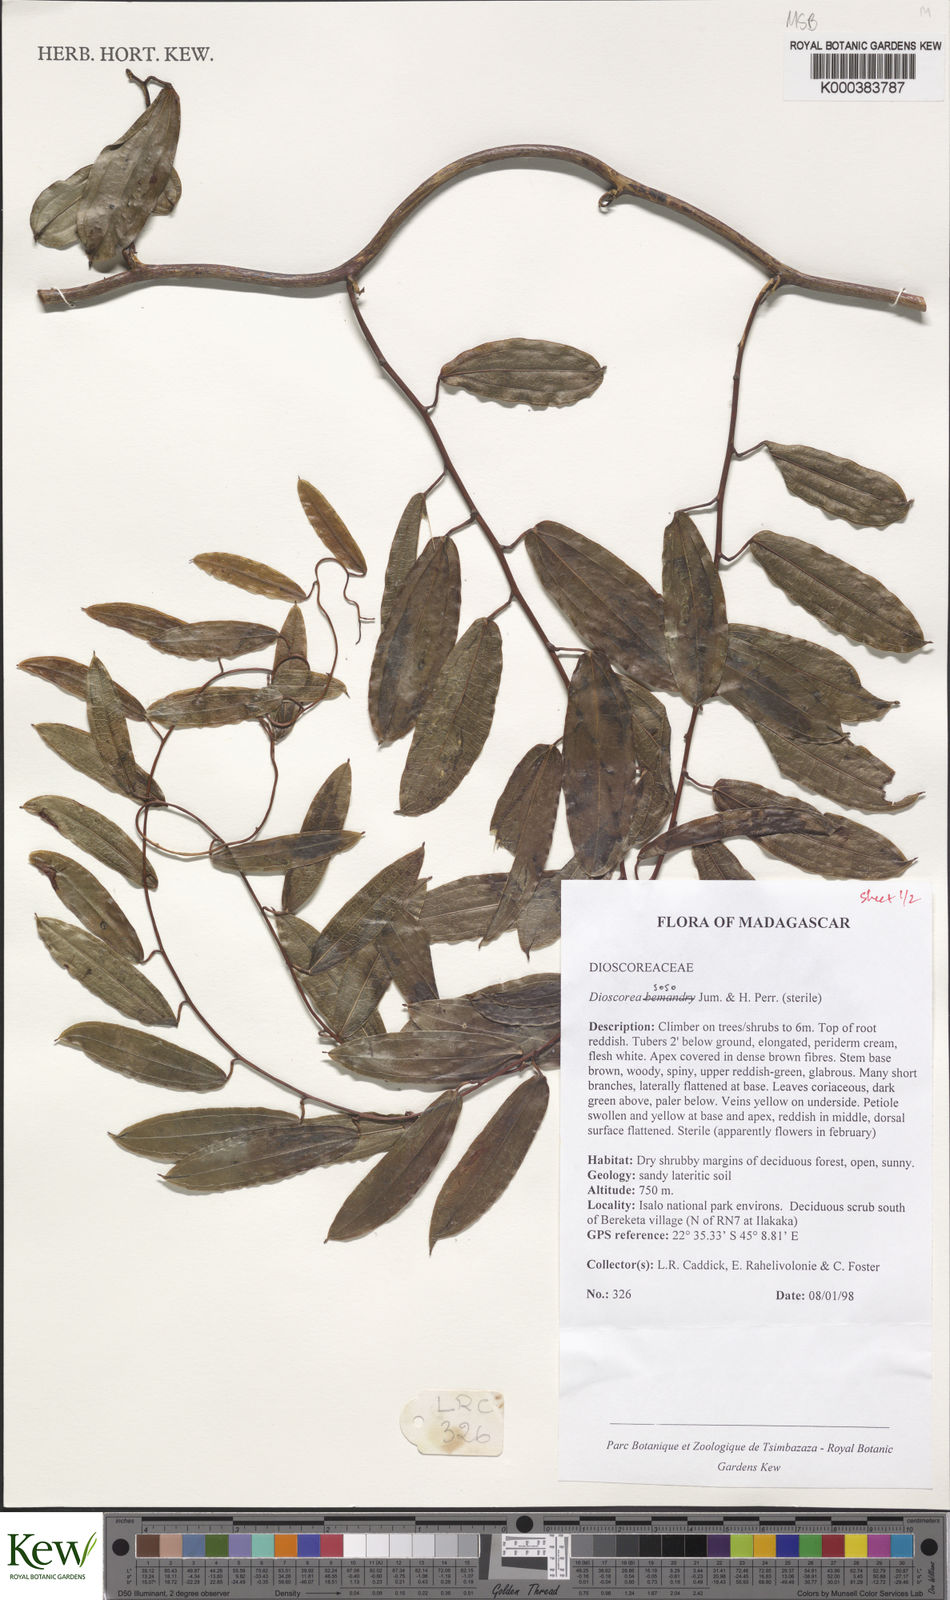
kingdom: Plantae
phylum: Tracheophyta
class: Liliopsida
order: Dioscoreales
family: Dioscoreaceae
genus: Dioscorea
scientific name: Dioscorea
